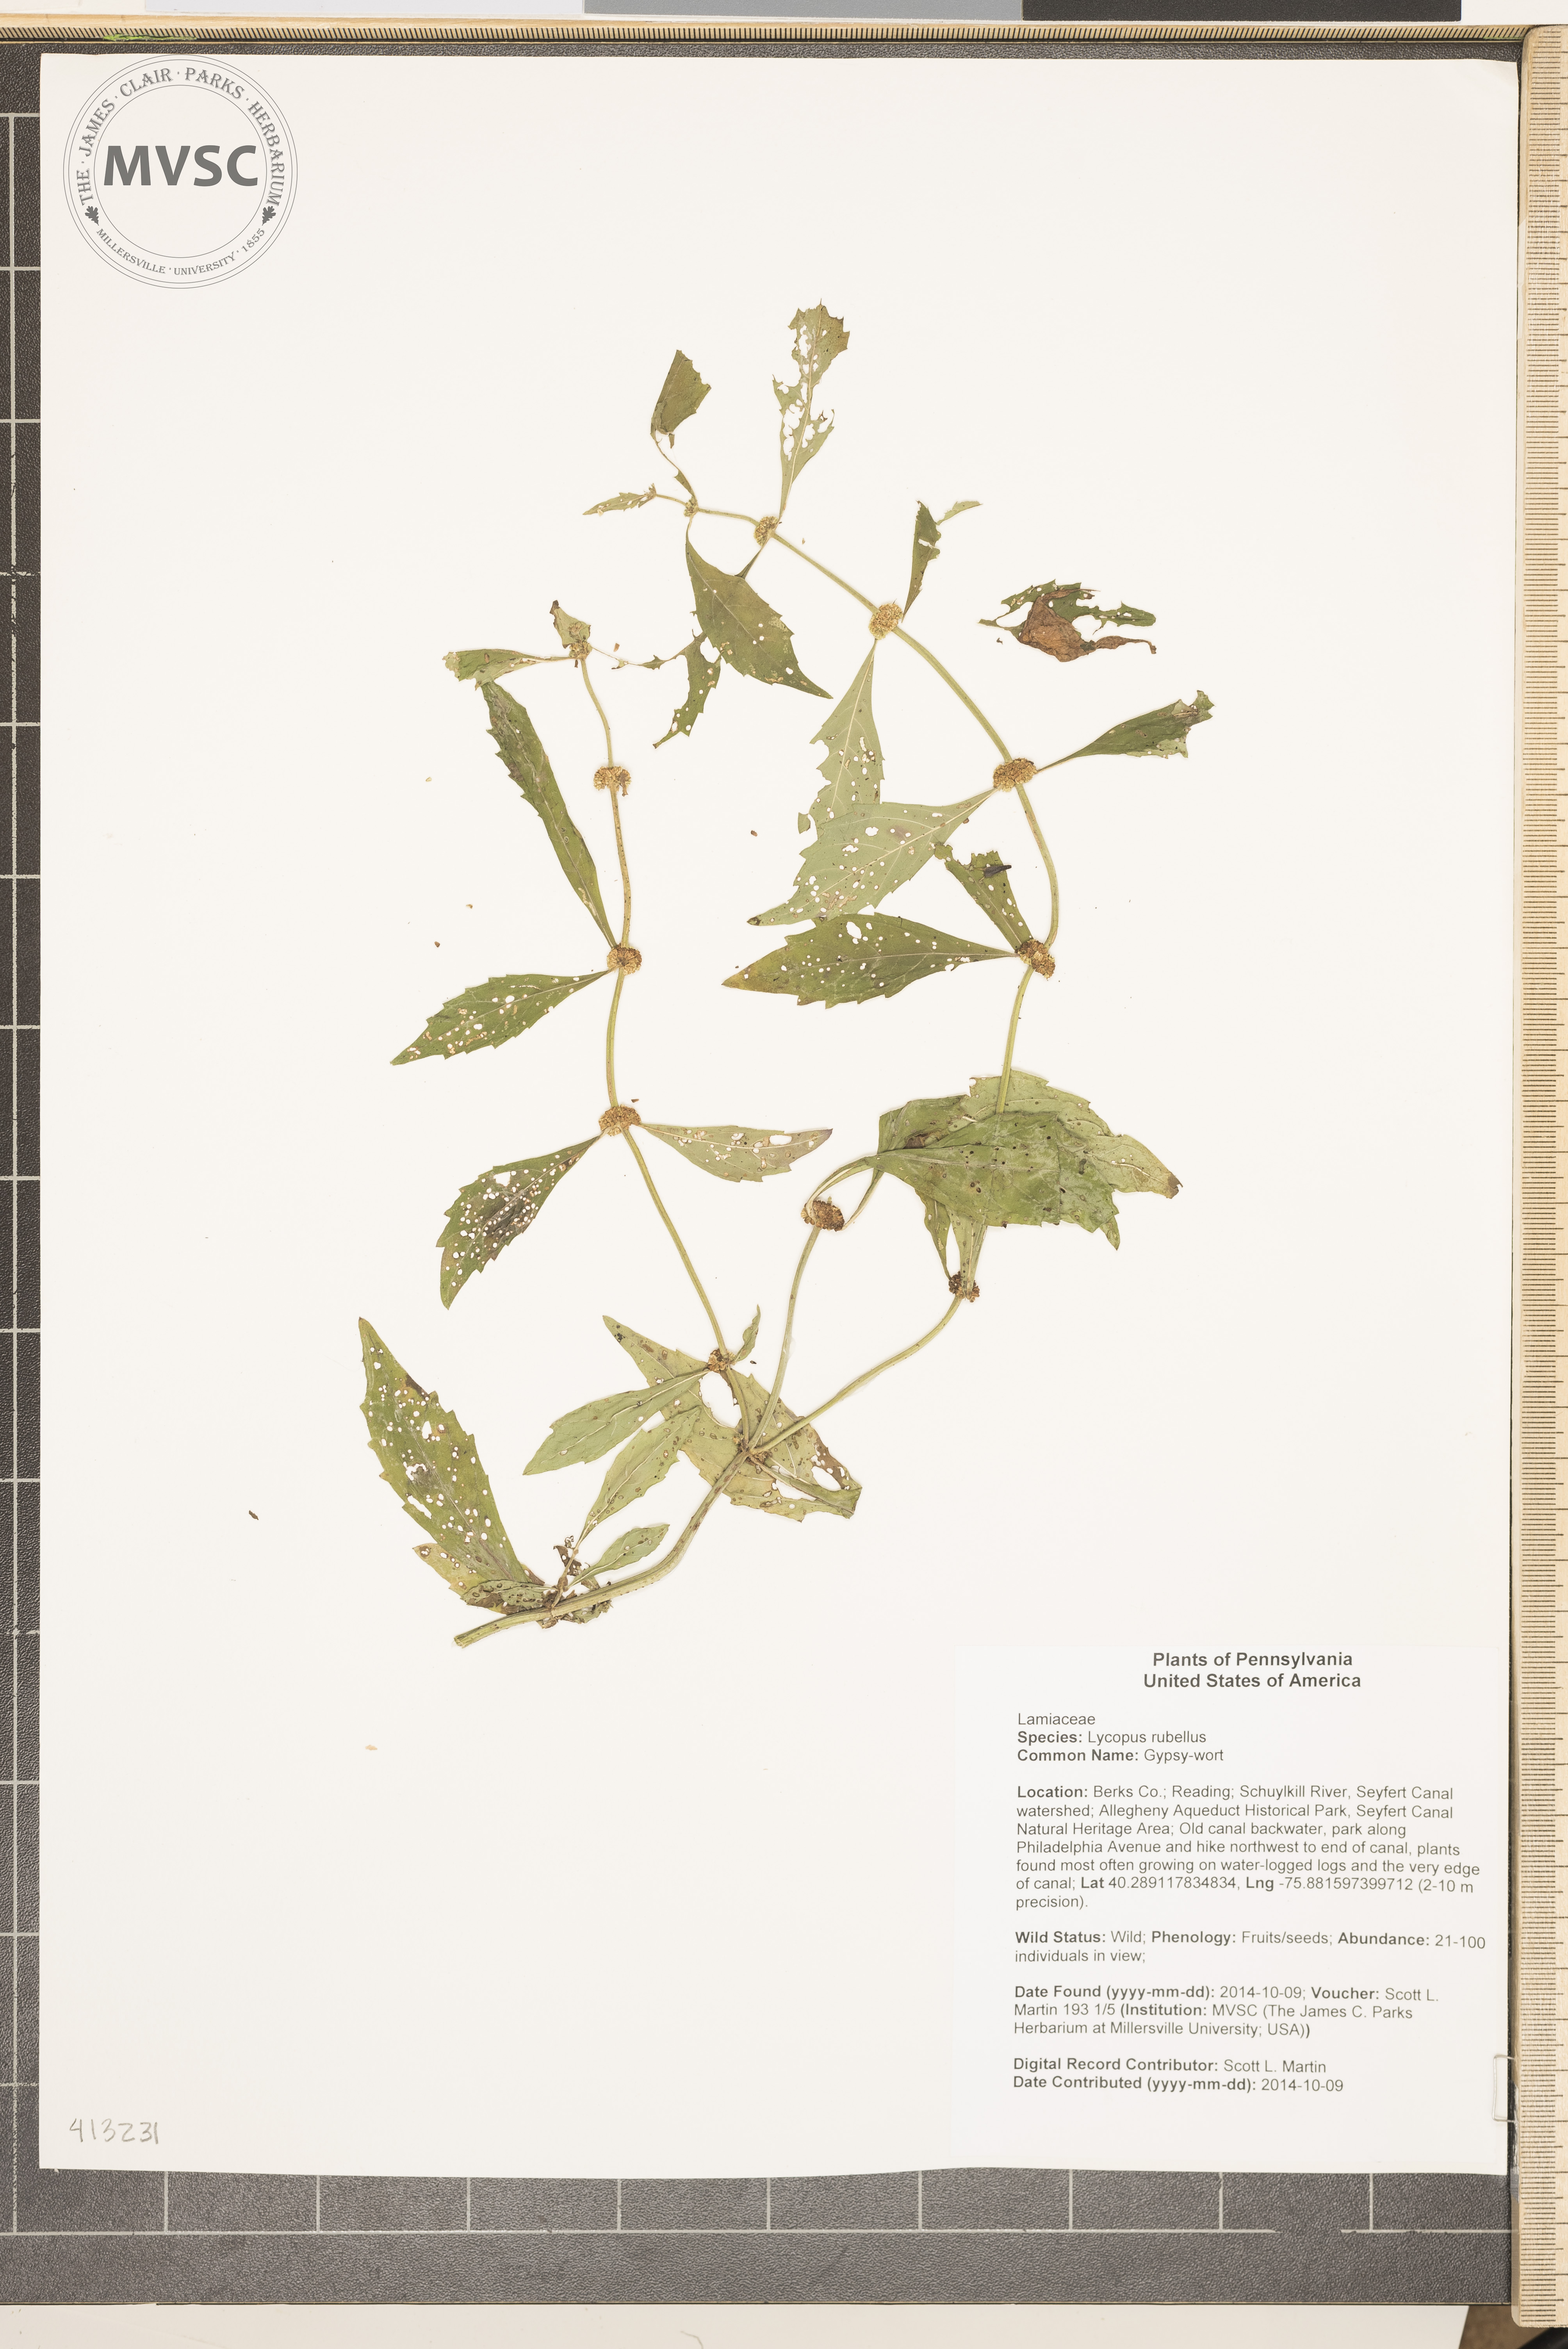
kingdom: Plantae
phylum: Tracheophyta
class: Magnoliopsida
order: Lamiales
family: Lamiaceae
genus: Lycopus
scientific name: Lycopus rubellus
